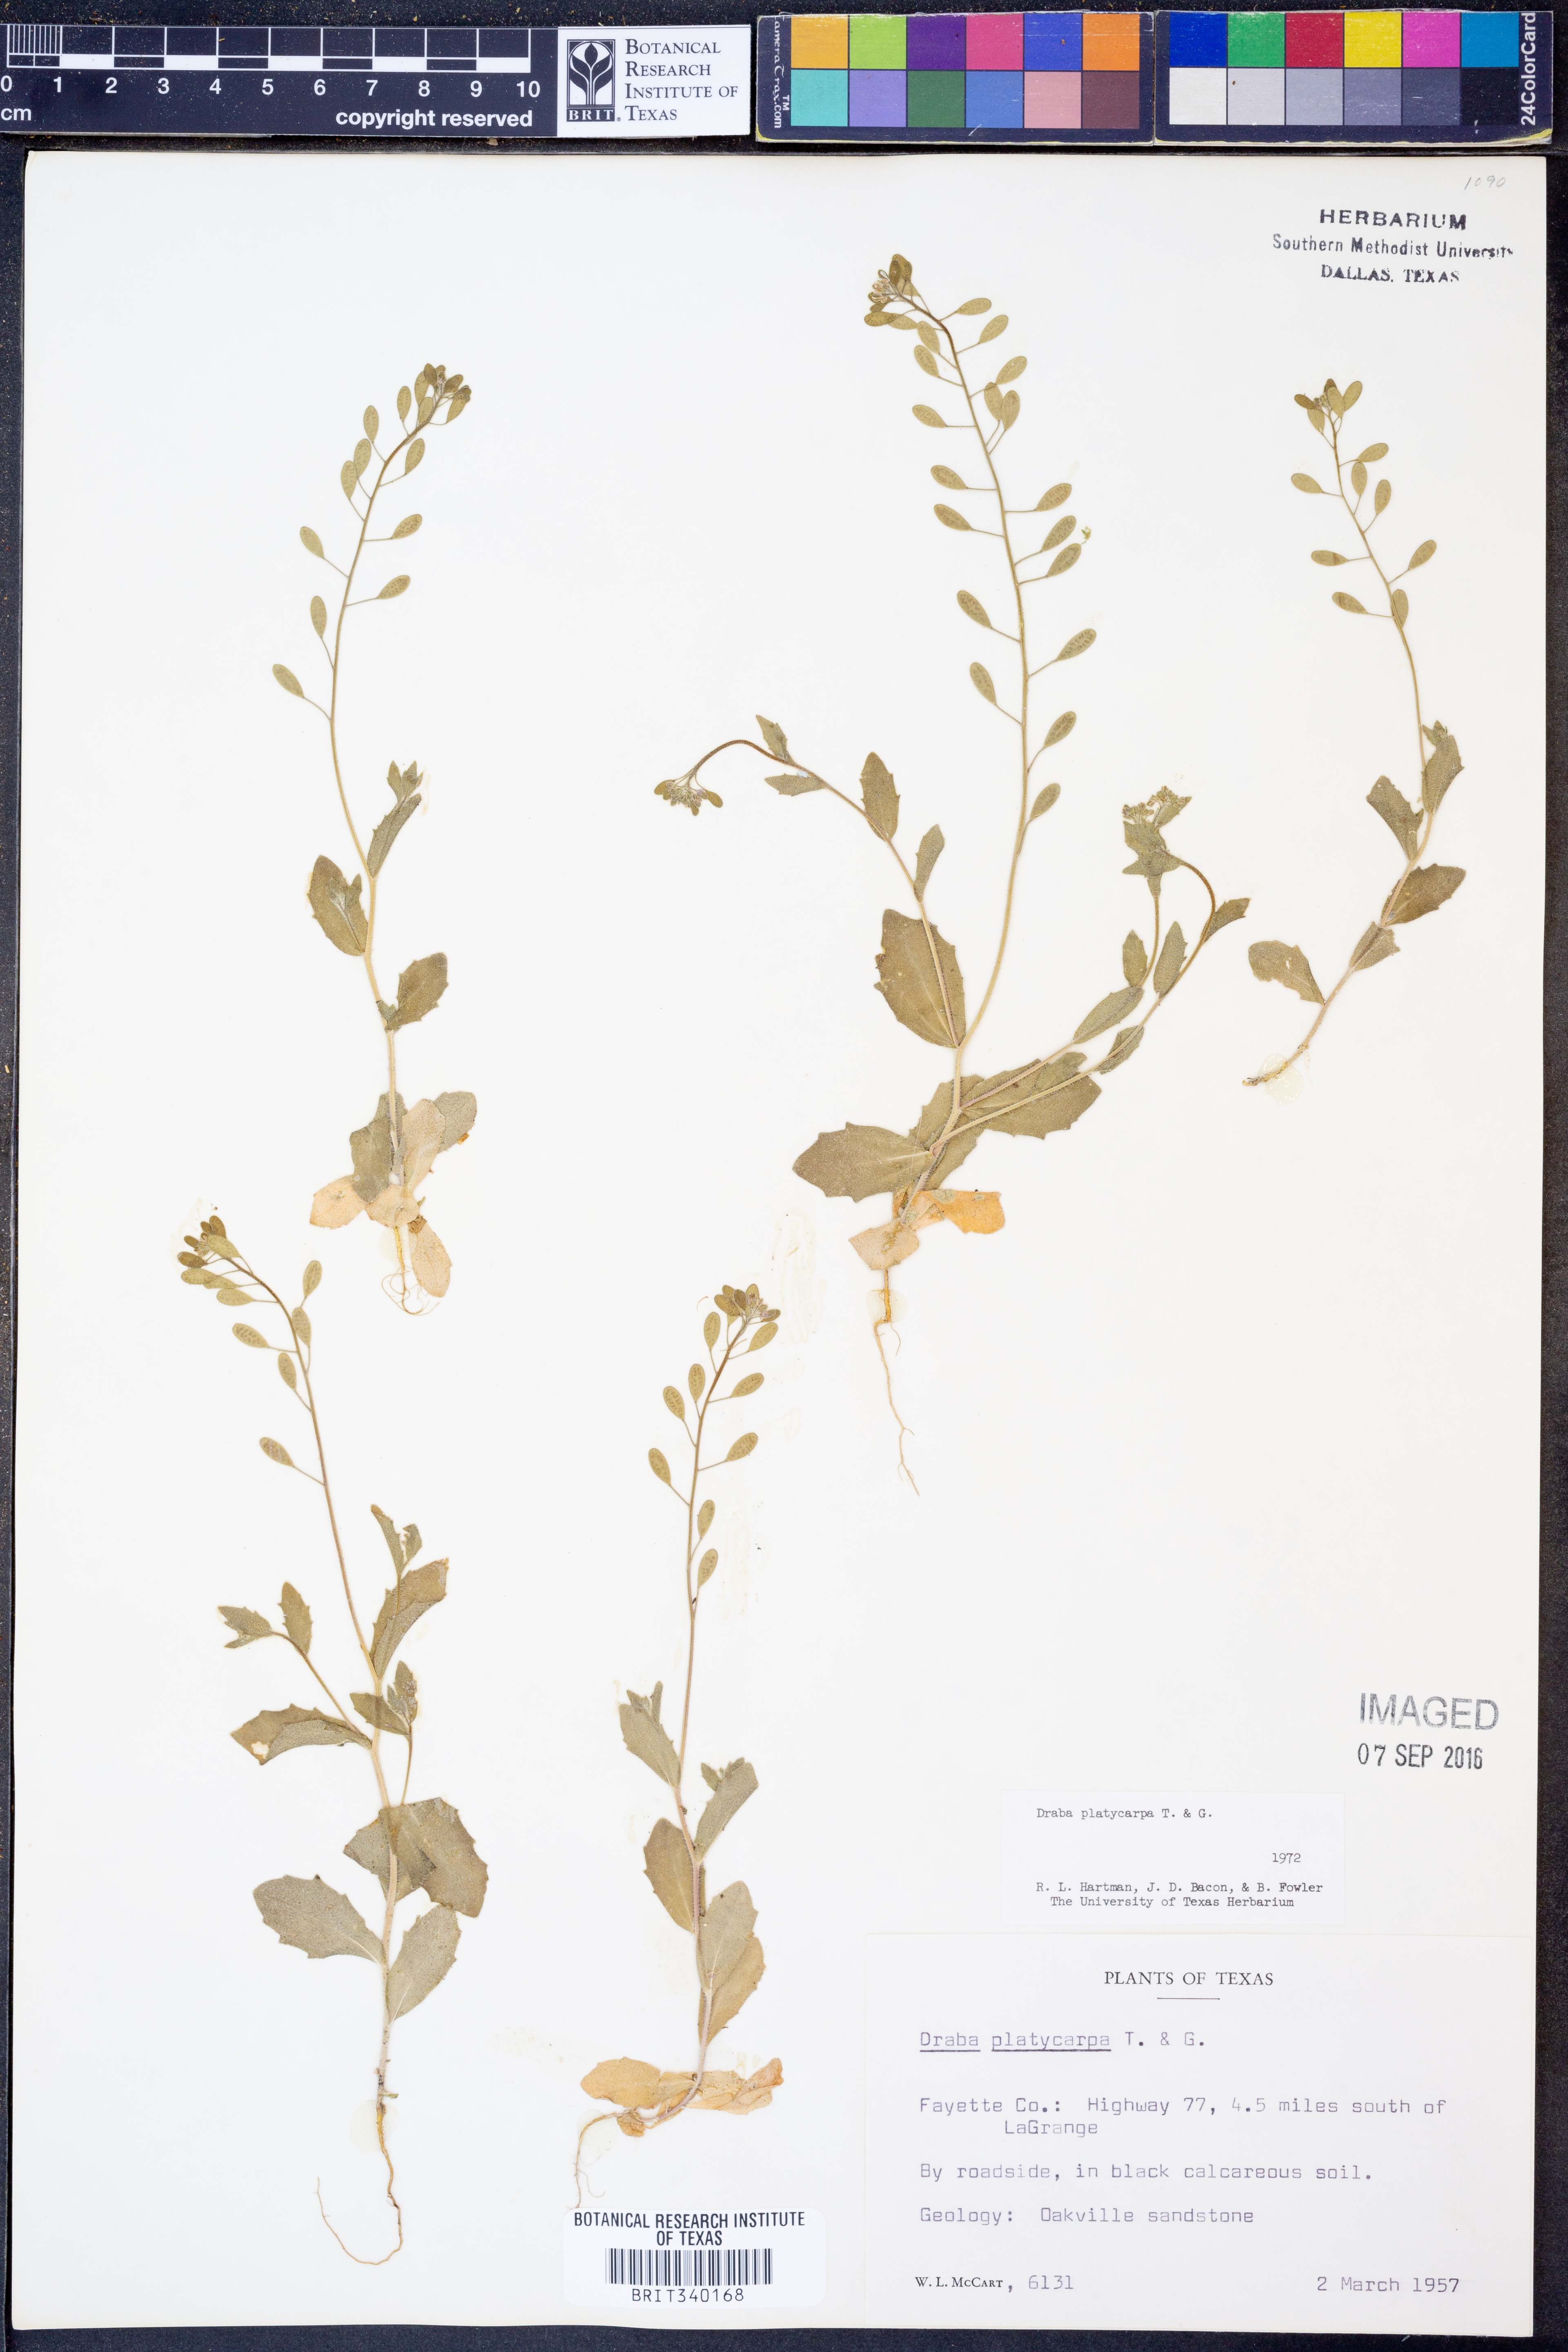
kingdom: Plantae
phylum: Tracheophyta
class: Magnoliopsida
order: Brassicales
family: Brassicaceae
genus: Tomostima
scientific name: Tomostima platycarpa
